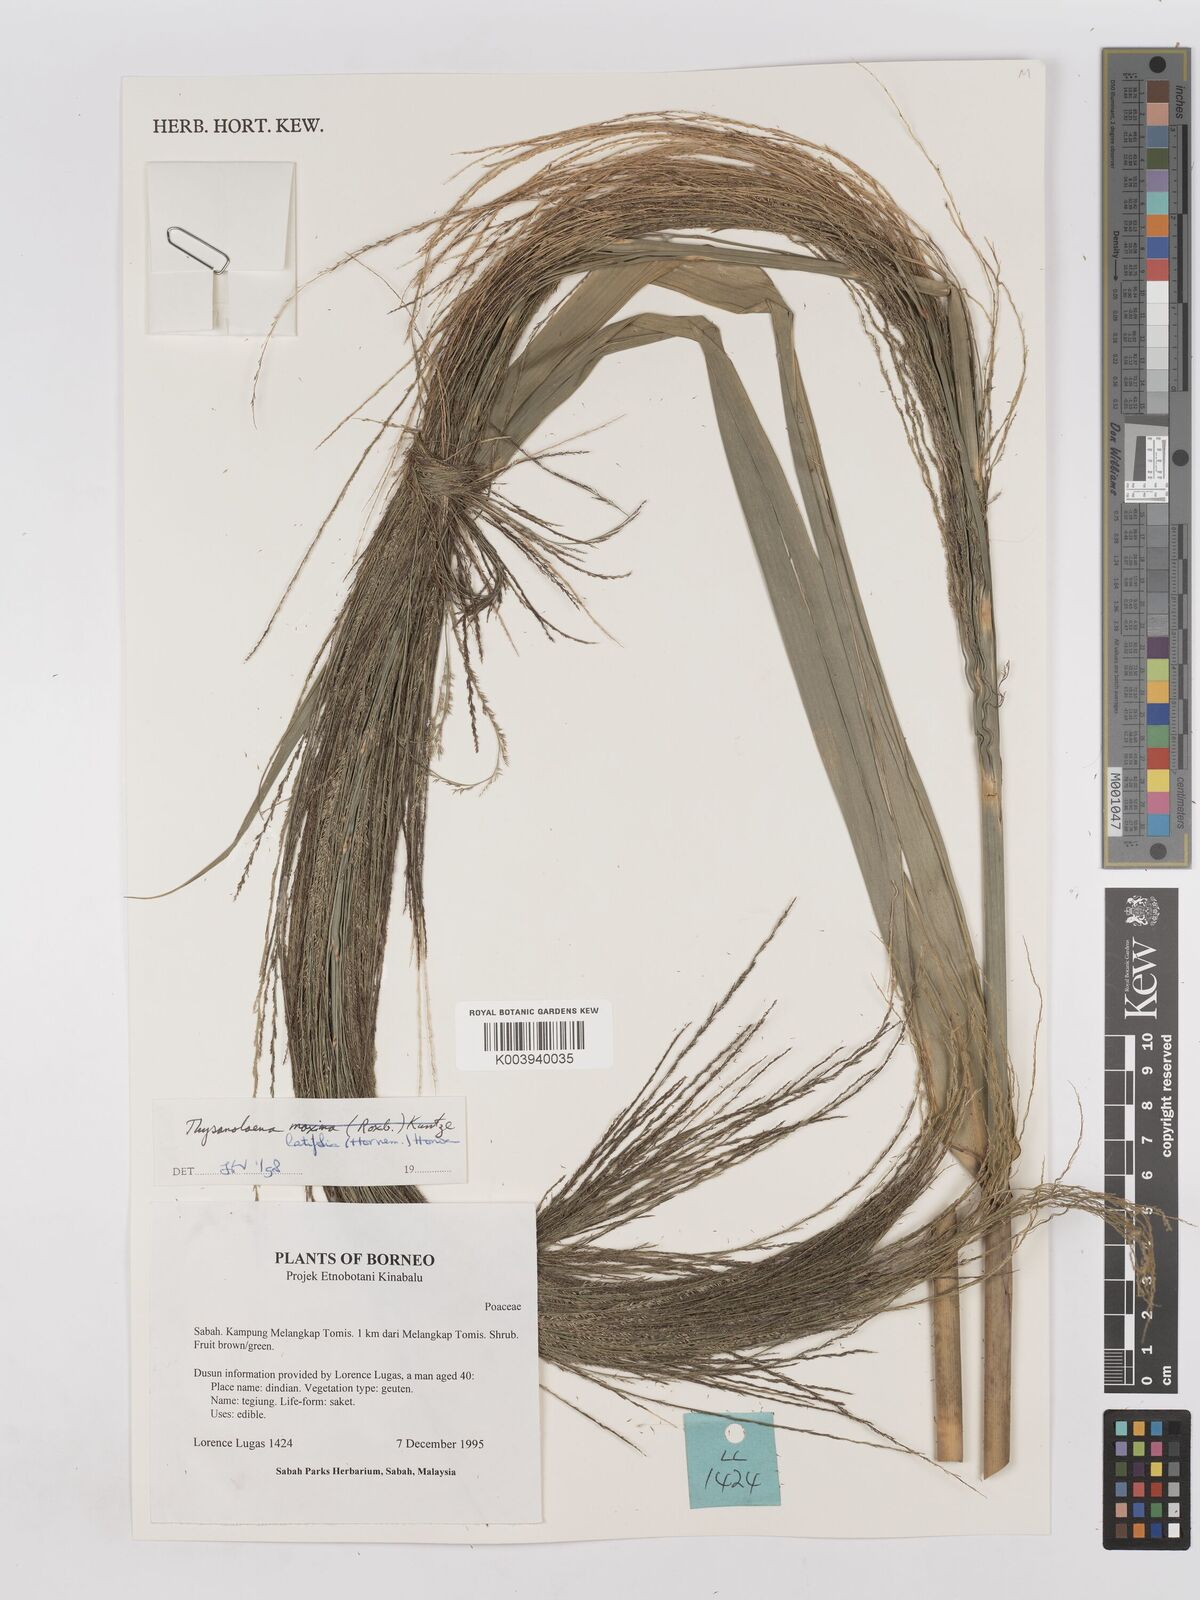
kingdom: Plantae
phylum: Tracheophyta
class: Liliopsida
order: Poales
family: Poaceae
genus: Thysanolaena
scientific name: Thysanolaena latifolia
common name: Tiger grass
